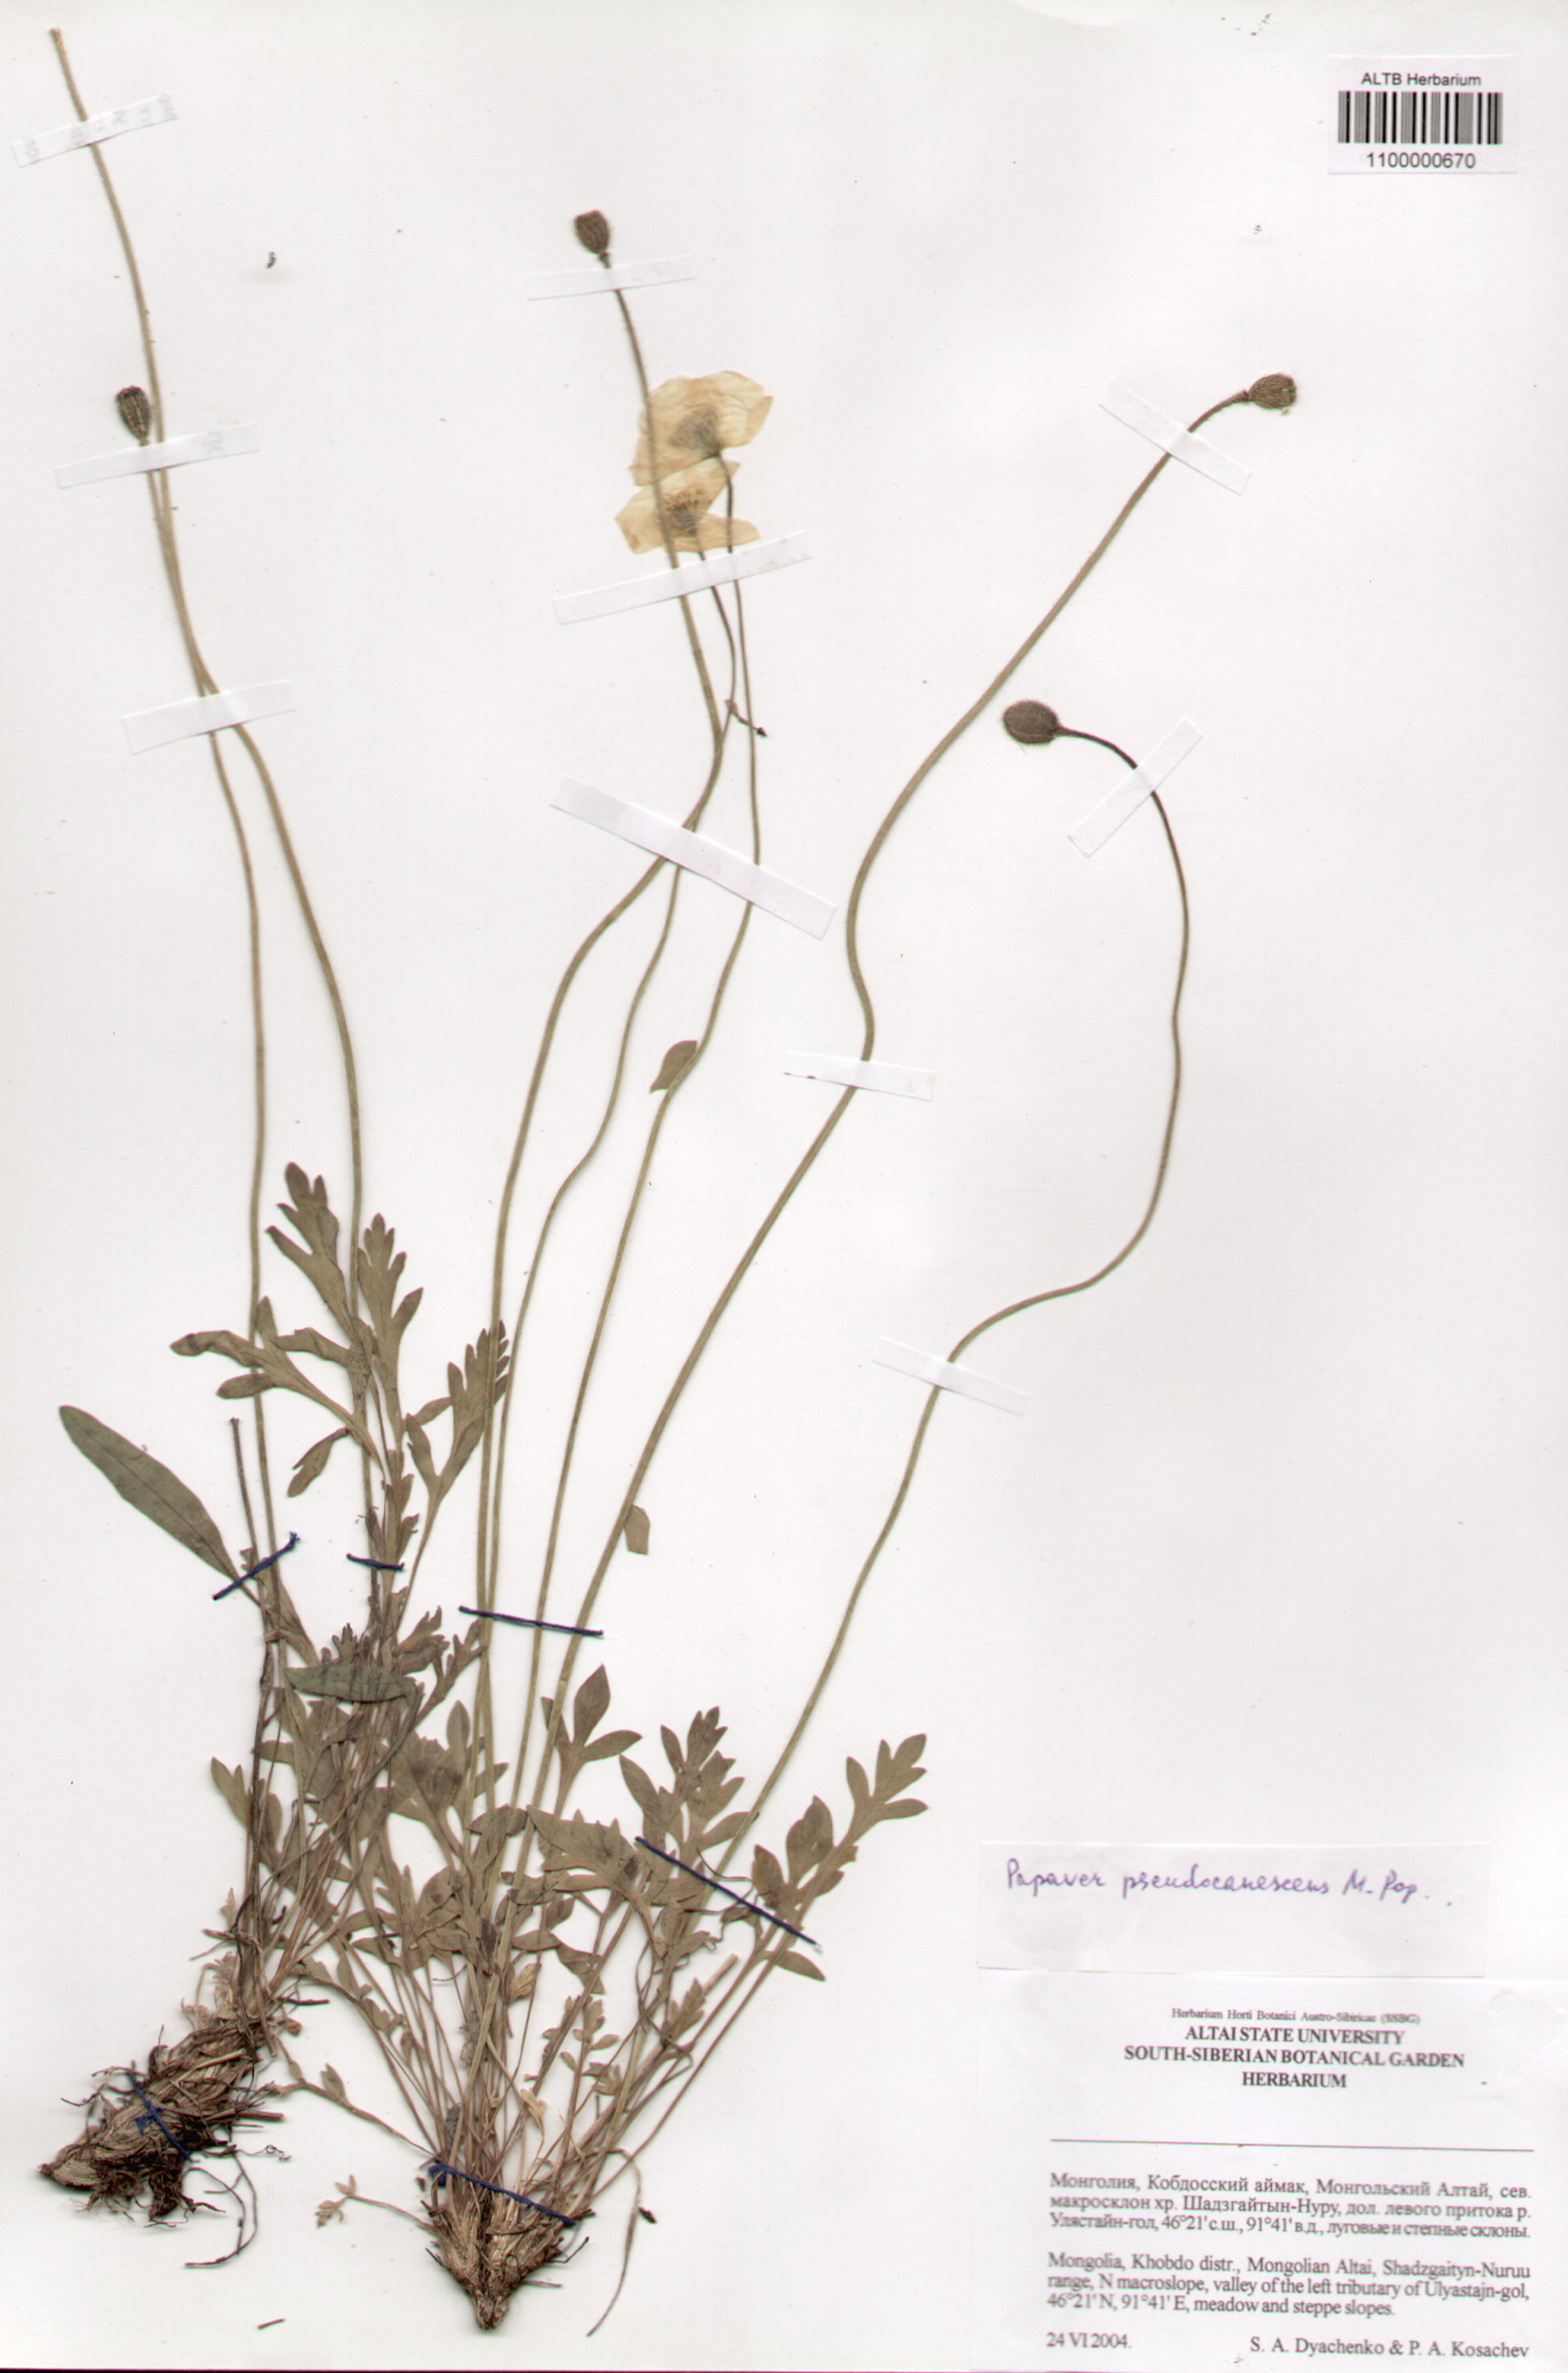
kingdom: Plantae
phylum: Tracheophyta
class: Magnoliopsida
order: Ranunculales
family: Papaveraceae
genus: Papaver
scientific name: Papaver canescens
